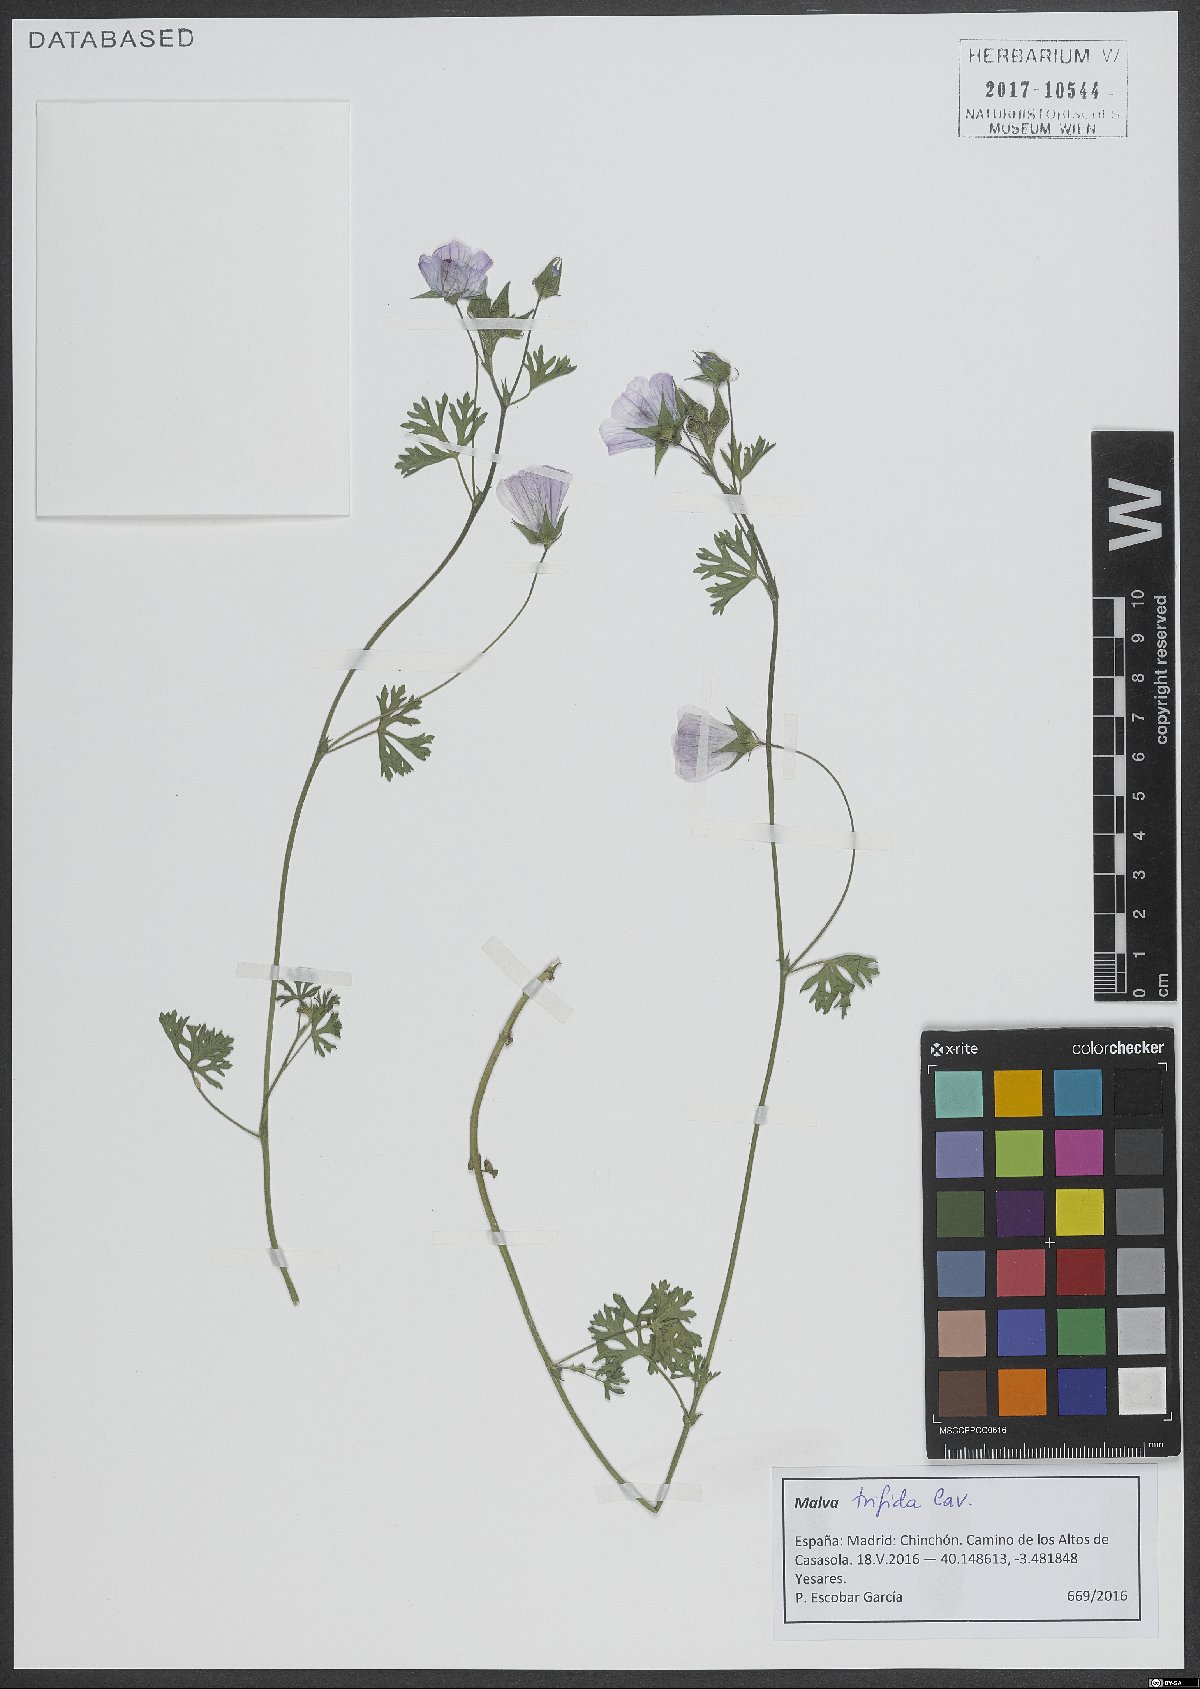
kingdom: Plantae
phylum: Tracheophyta
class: Magnoliopsida
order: Malvales
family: Malvaceae
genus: Malva
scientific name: Malva trifida
